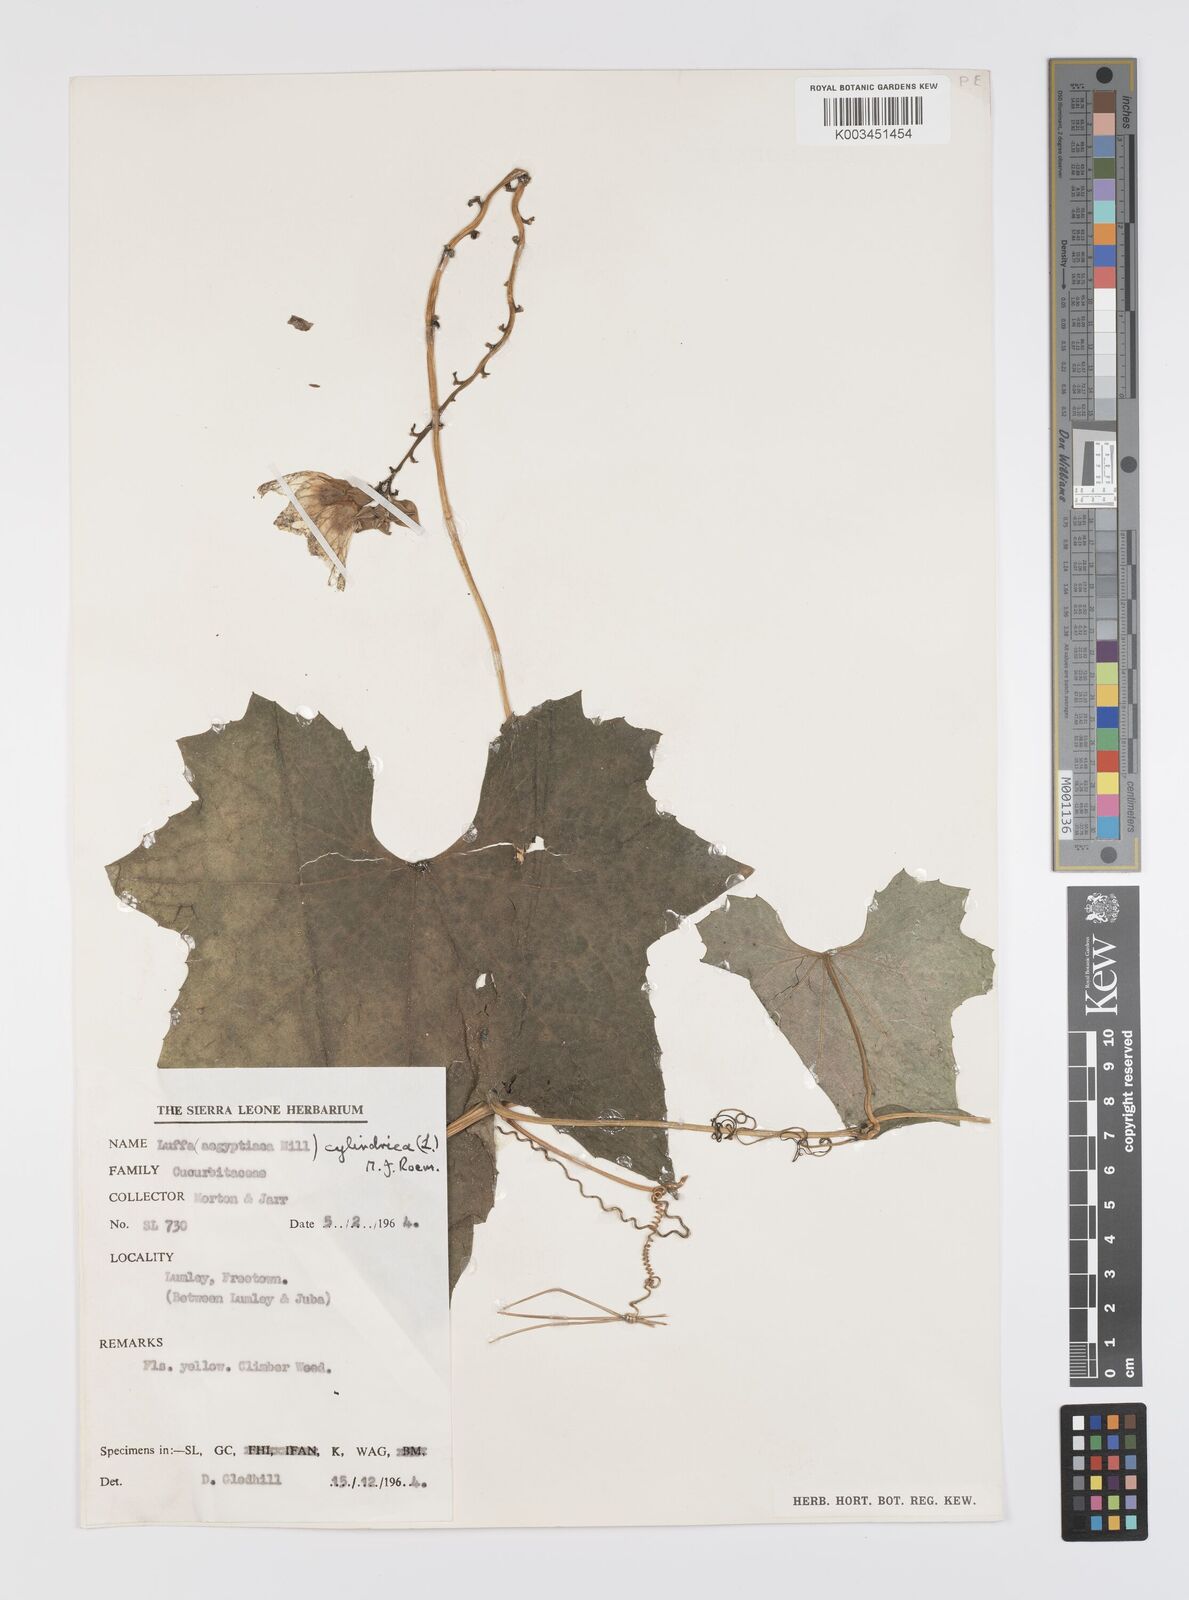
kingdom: Plantae
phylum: Tracheophyta
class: Magnoliopsida
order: Cucurbitales
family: Cucurbitaceae
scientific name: Cucurbitaceae
